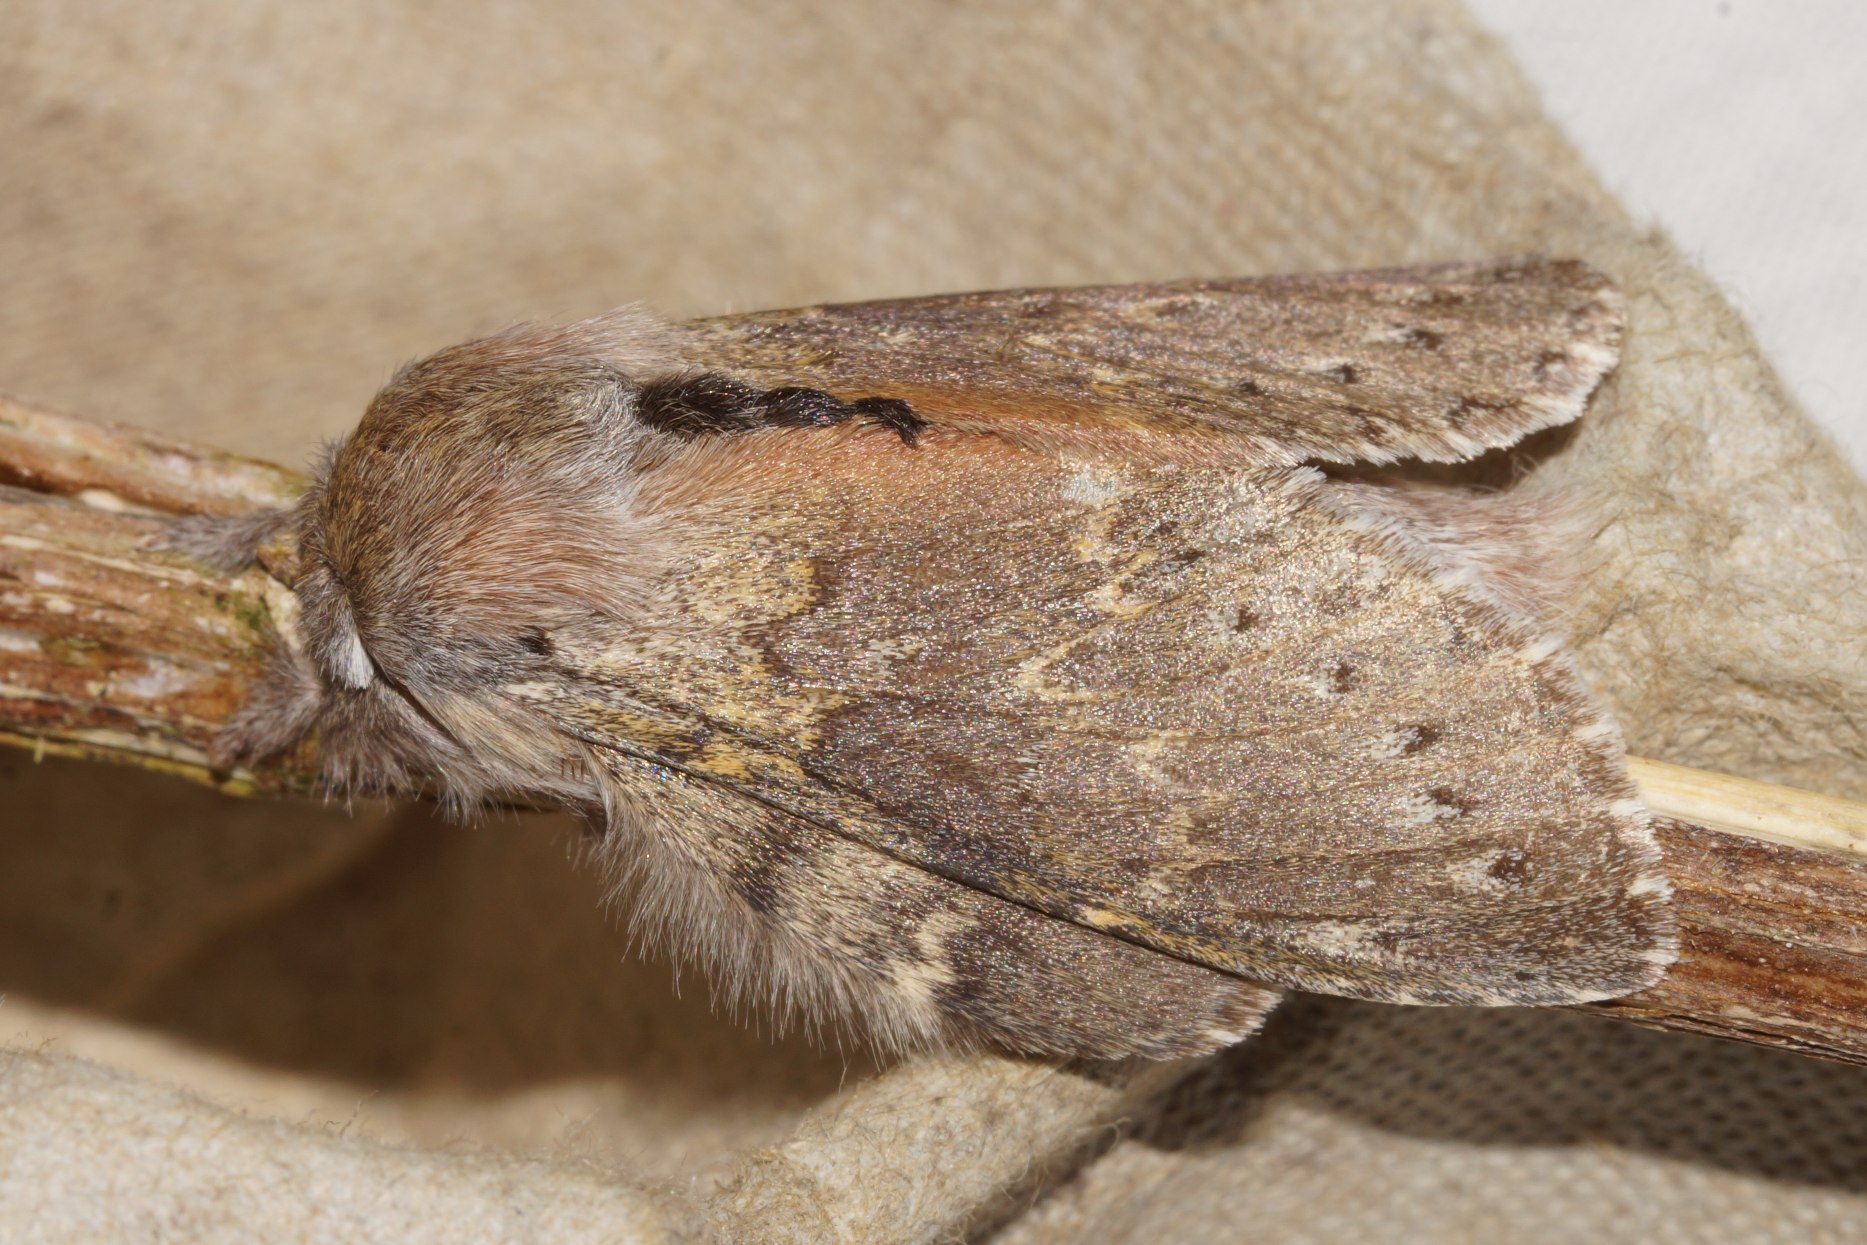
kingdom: Animalia
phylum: Arthropoda
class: Insecta
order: Lepidoptera
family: Notodontidae
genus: Stauropus
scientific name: Stauropus fagi
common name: Bøgespinder
